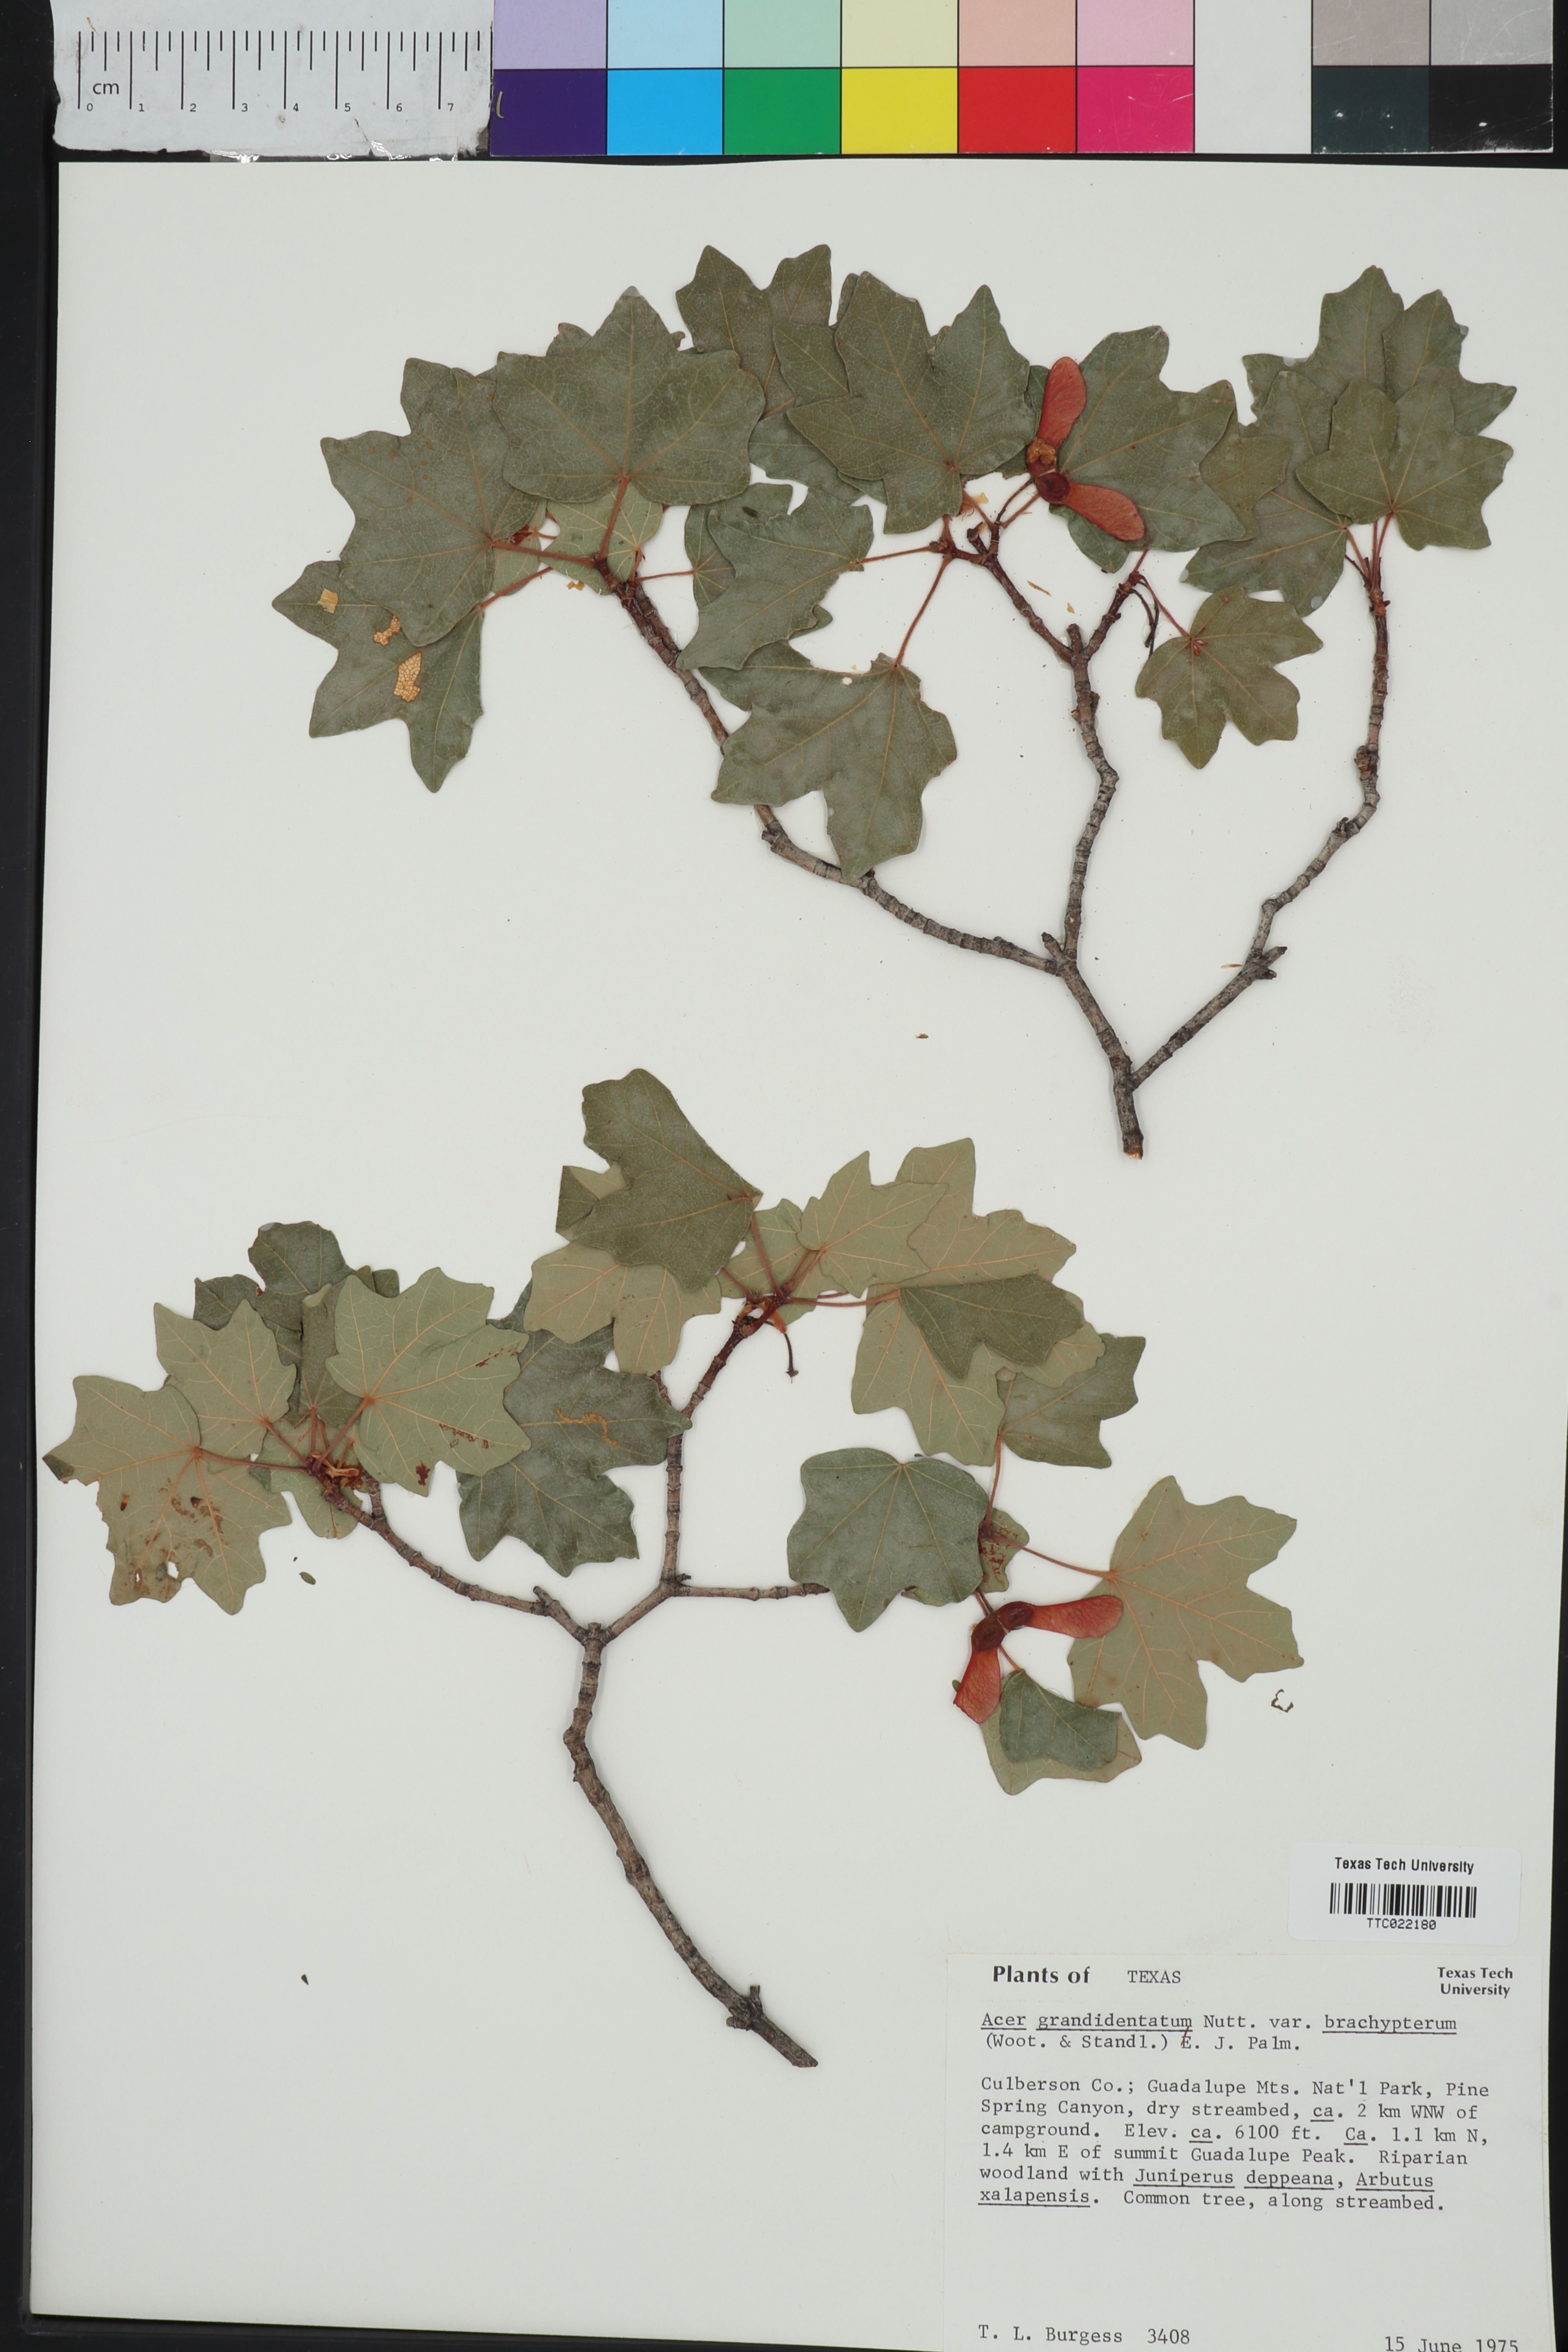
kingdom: Plantae
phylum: Tracheophyta
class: Magnoliopsida
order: Sapindales
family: Sapindaceae
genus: Acer
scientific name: Acer grandidentatum
